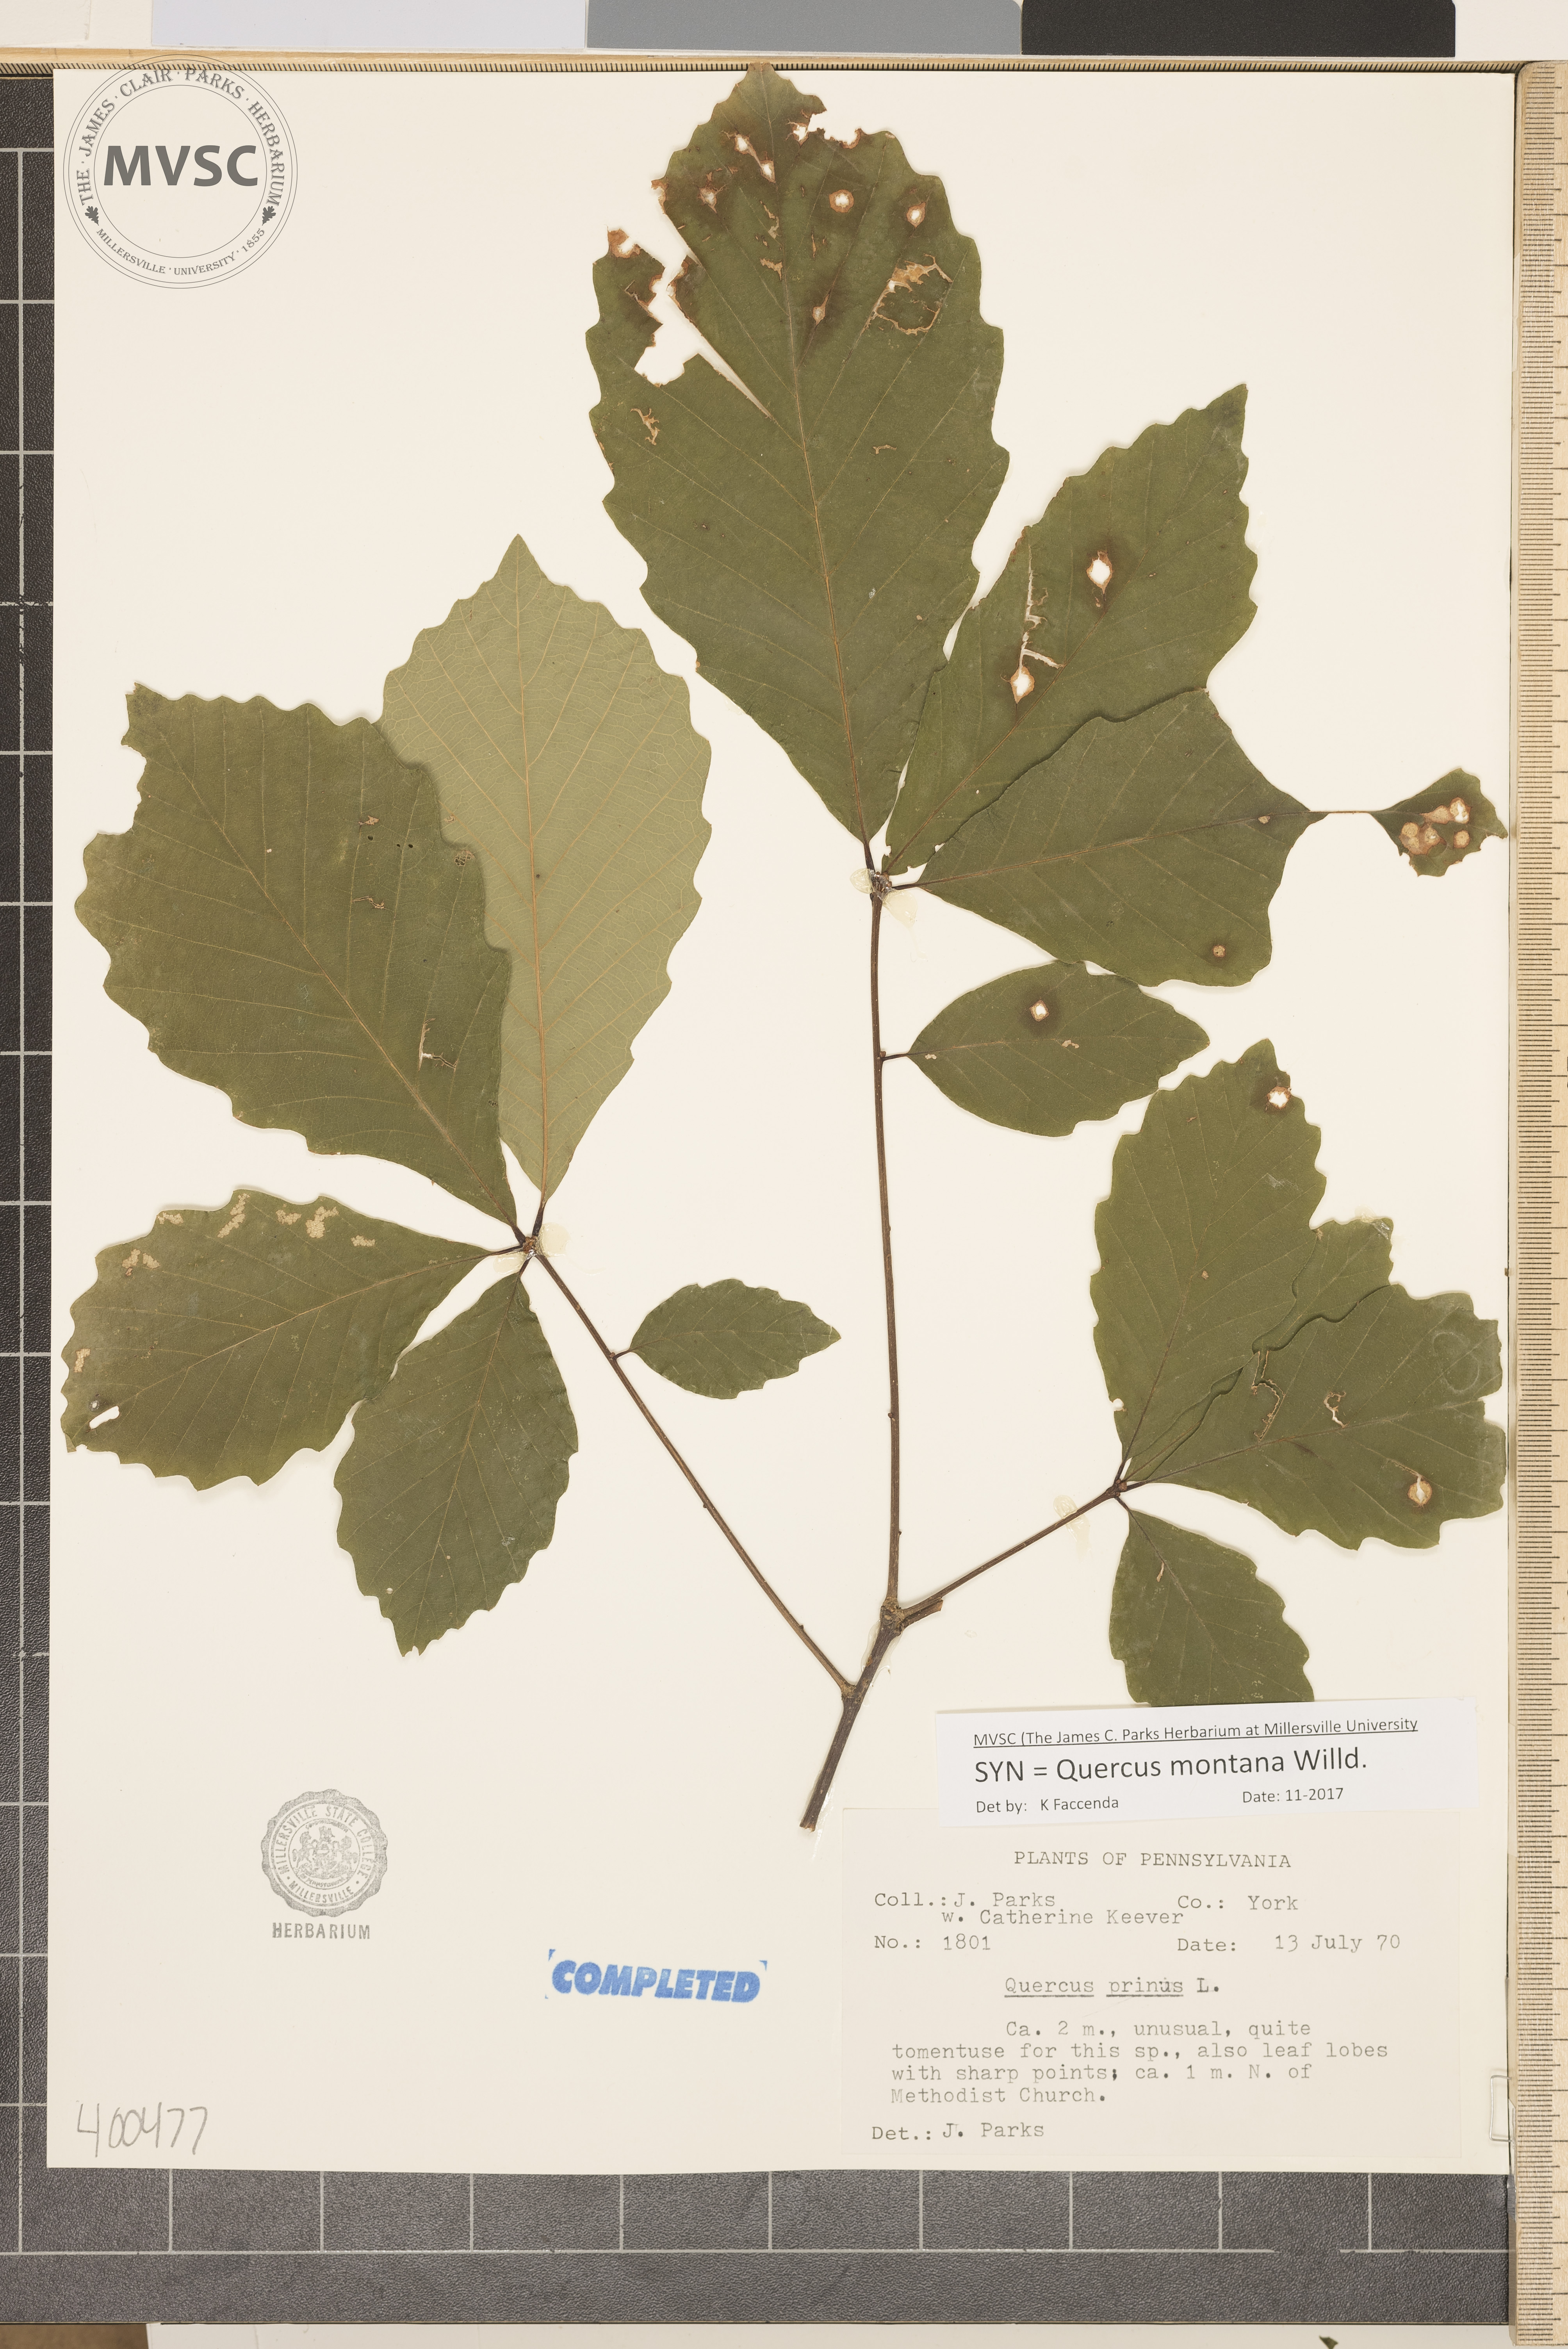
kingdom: Plantae
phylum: Tracheophyta
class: Magnoliopsida
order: Fagales
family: Fagaceae
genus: Quercus
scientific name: Quercus montana
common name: chestnut oak
